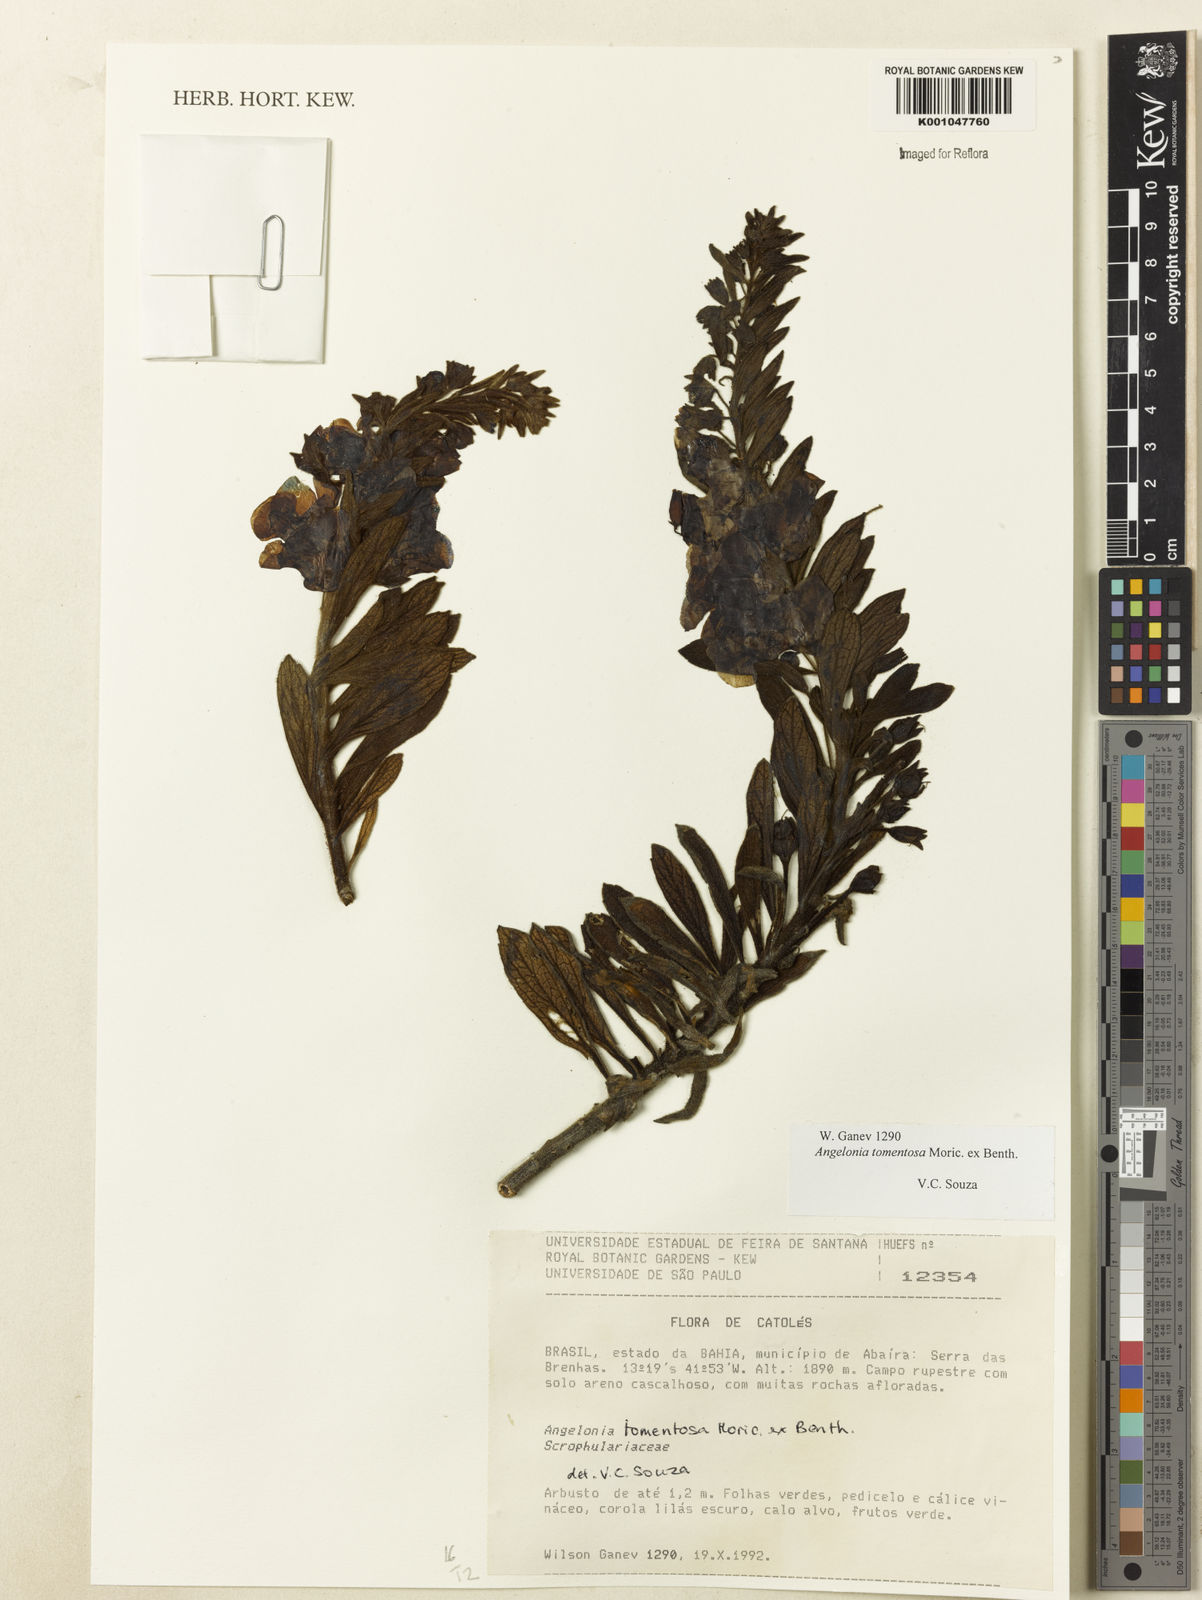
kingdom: Plantae
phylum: Tracheophyta
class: Magnoliopsida
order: Lamiales
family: Plantaginaceae
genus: Angelonia
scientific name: Angelonia tomentosa
